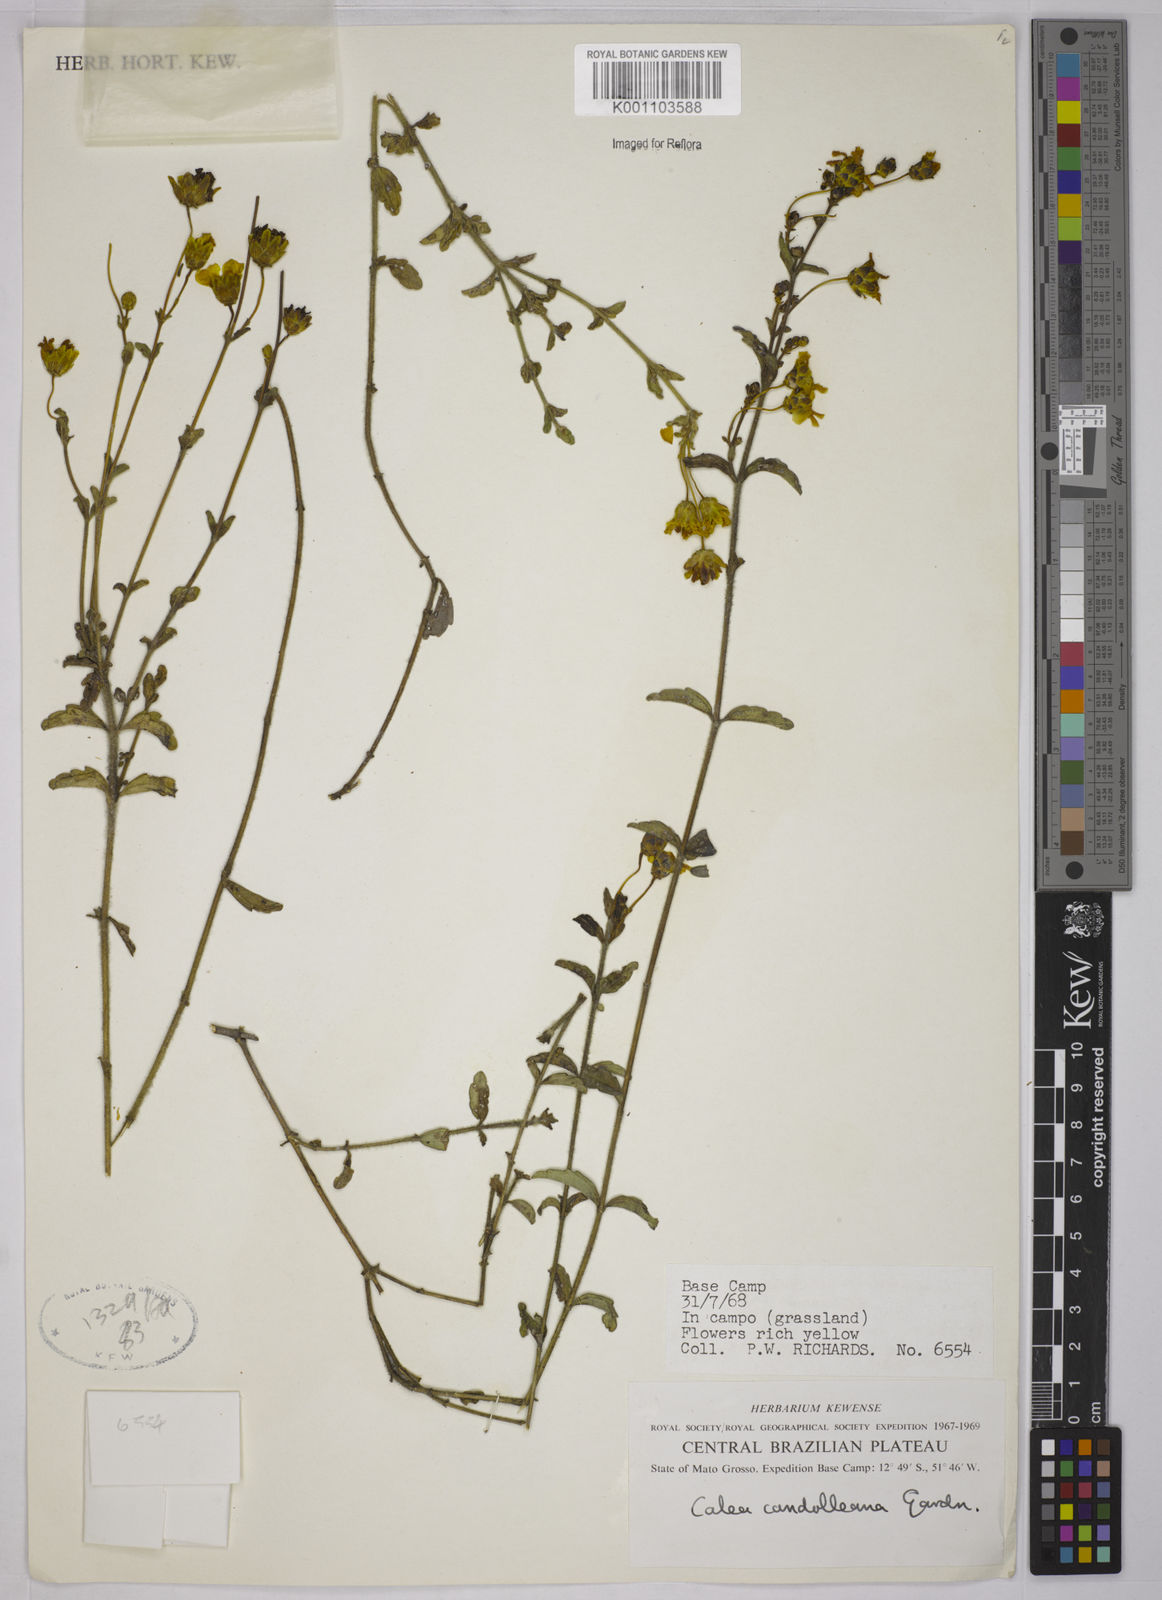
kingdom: Plantae
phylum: Tracheophyta
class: Magnoliopsida
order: Asterales
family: Asteraceae
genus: Calea
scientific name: Calea candolleana
